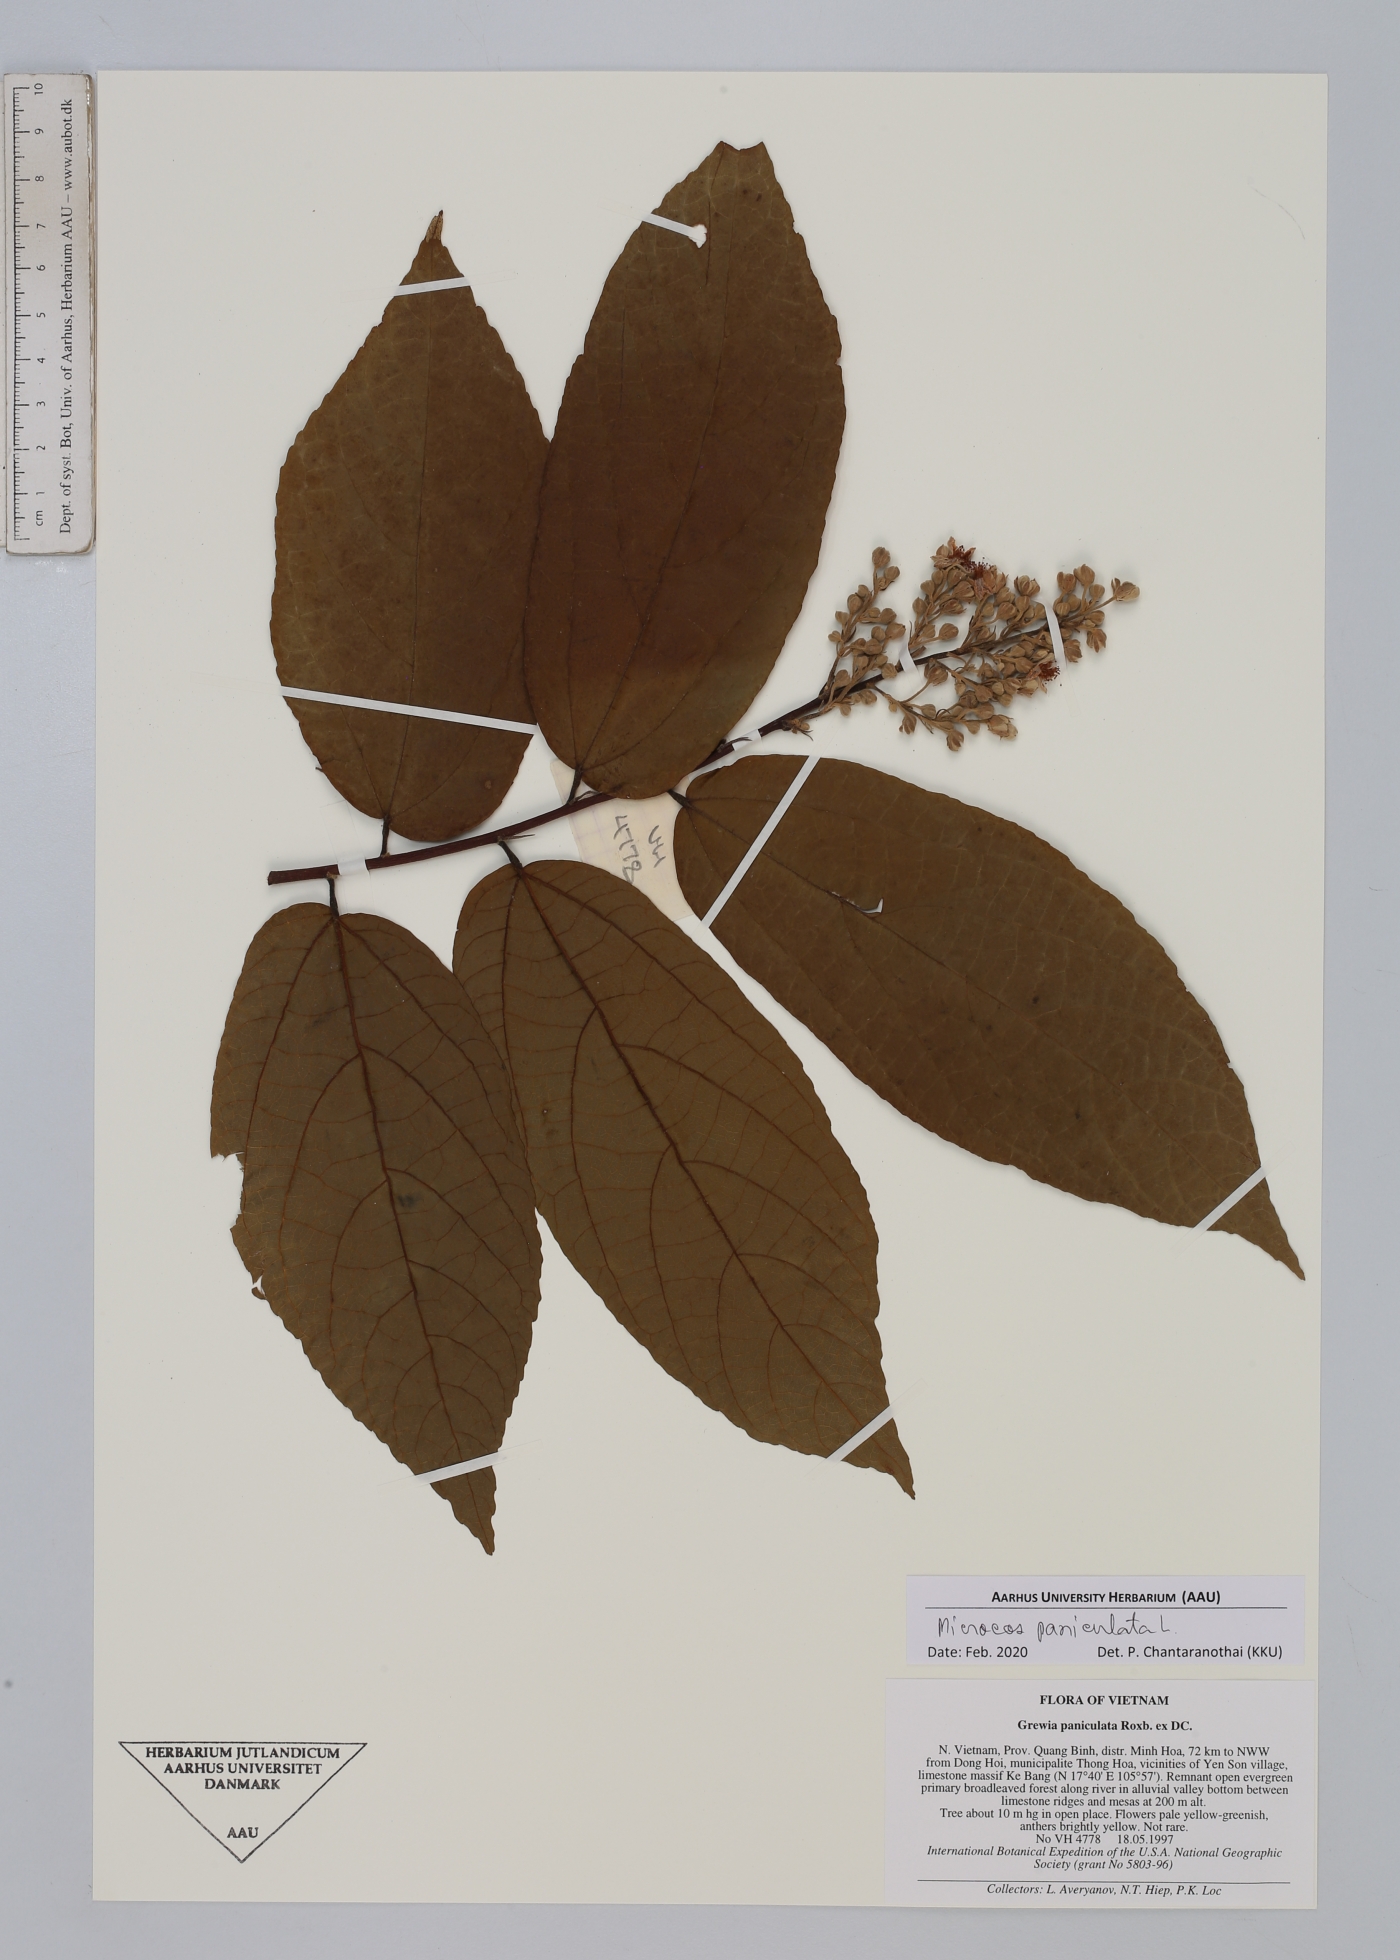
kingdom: Plantae
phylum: Tracheophyta
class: Magnoliopsida
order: Malvales
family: Malvaceae
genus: Microcos
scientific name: Microcos paniculata
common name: Microcos
